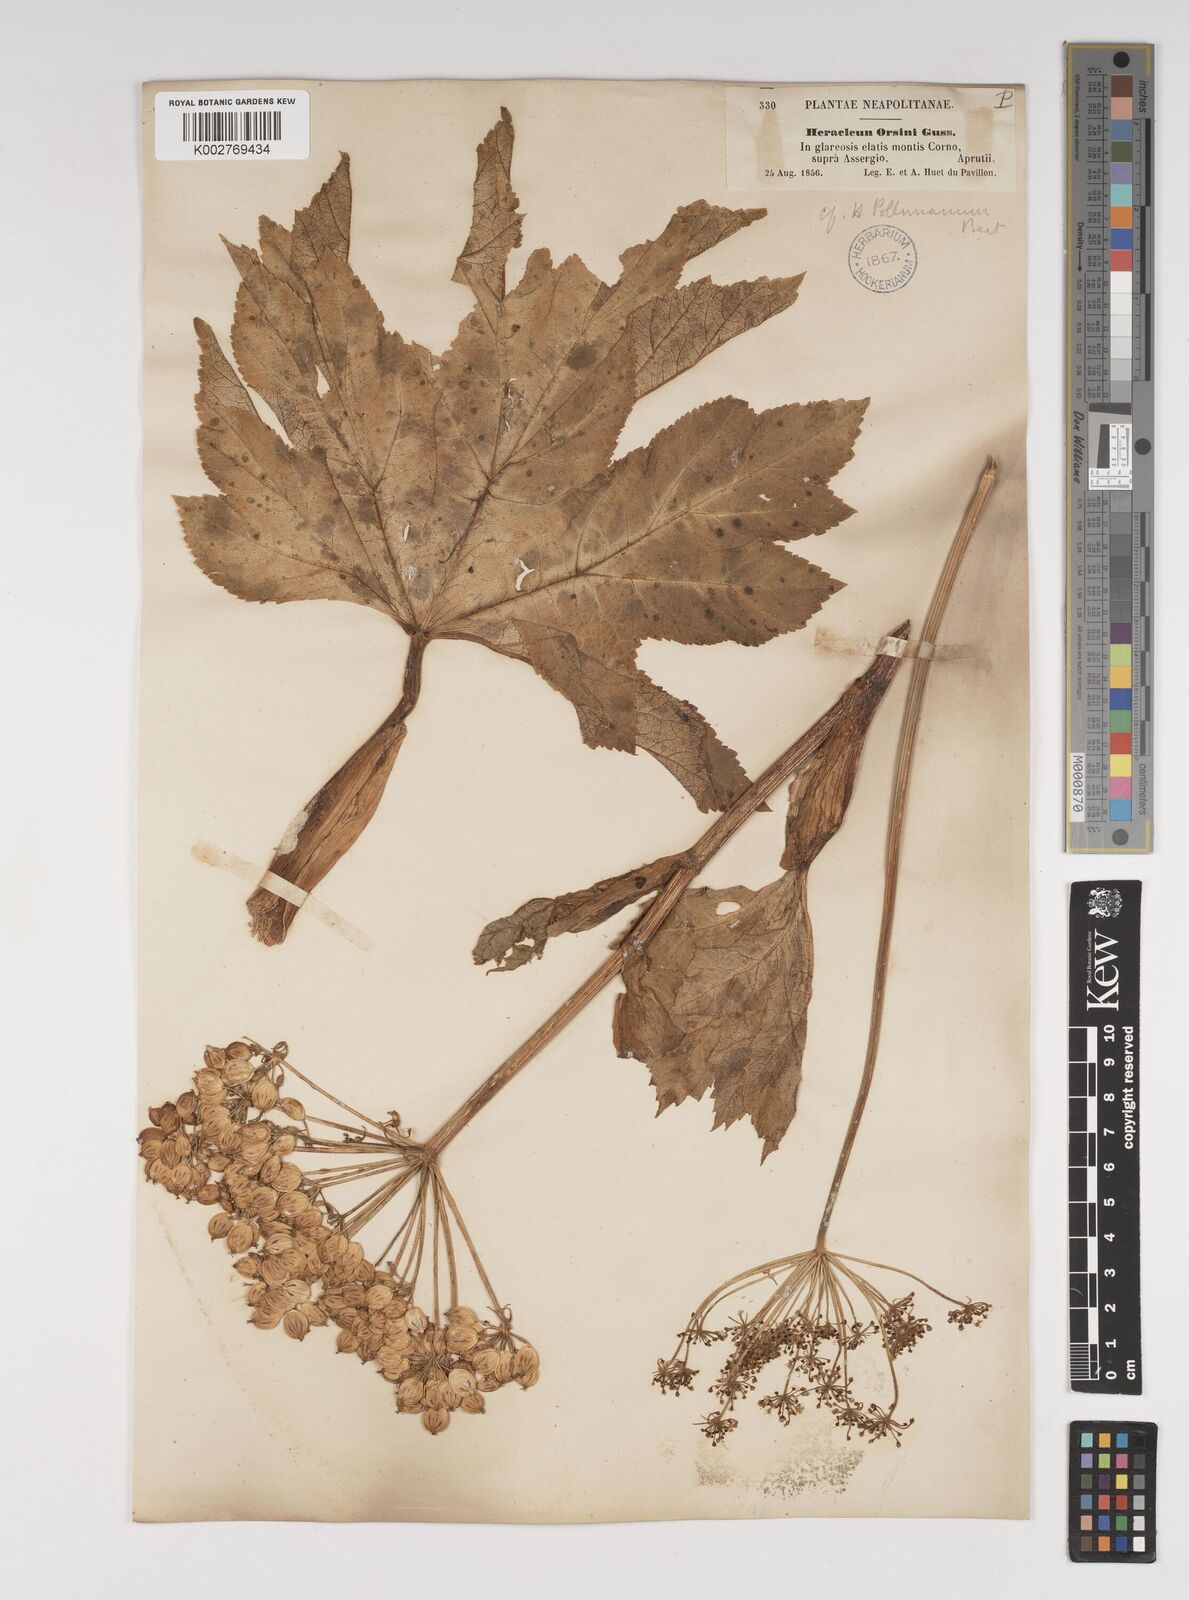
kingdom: Plantae
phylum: Tracheophyta
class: Magnoliopsida
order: Apiales
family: Apiaceae
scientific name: Apiaceae
